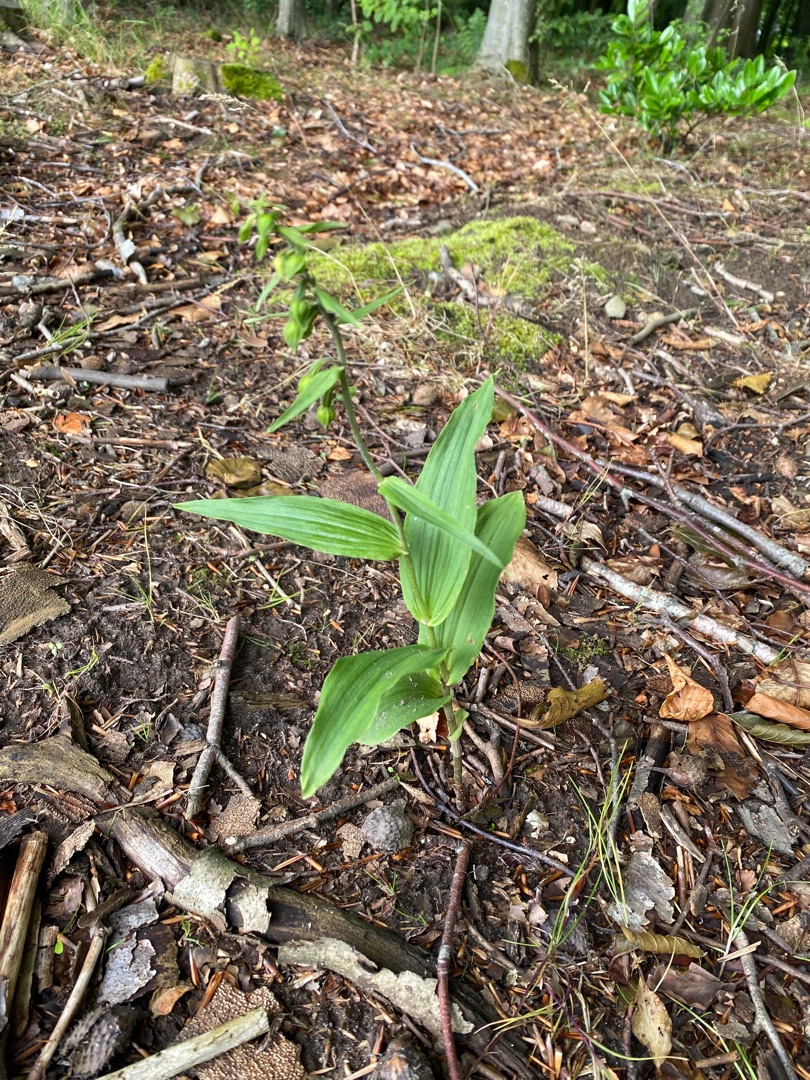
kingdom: Plantae
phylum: Tracheophyta
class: Liliopsida
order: Asparagales
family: Orchidaceae
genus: Epipactis
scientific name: Epipactis helleborine
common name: Skov-hullæbe
